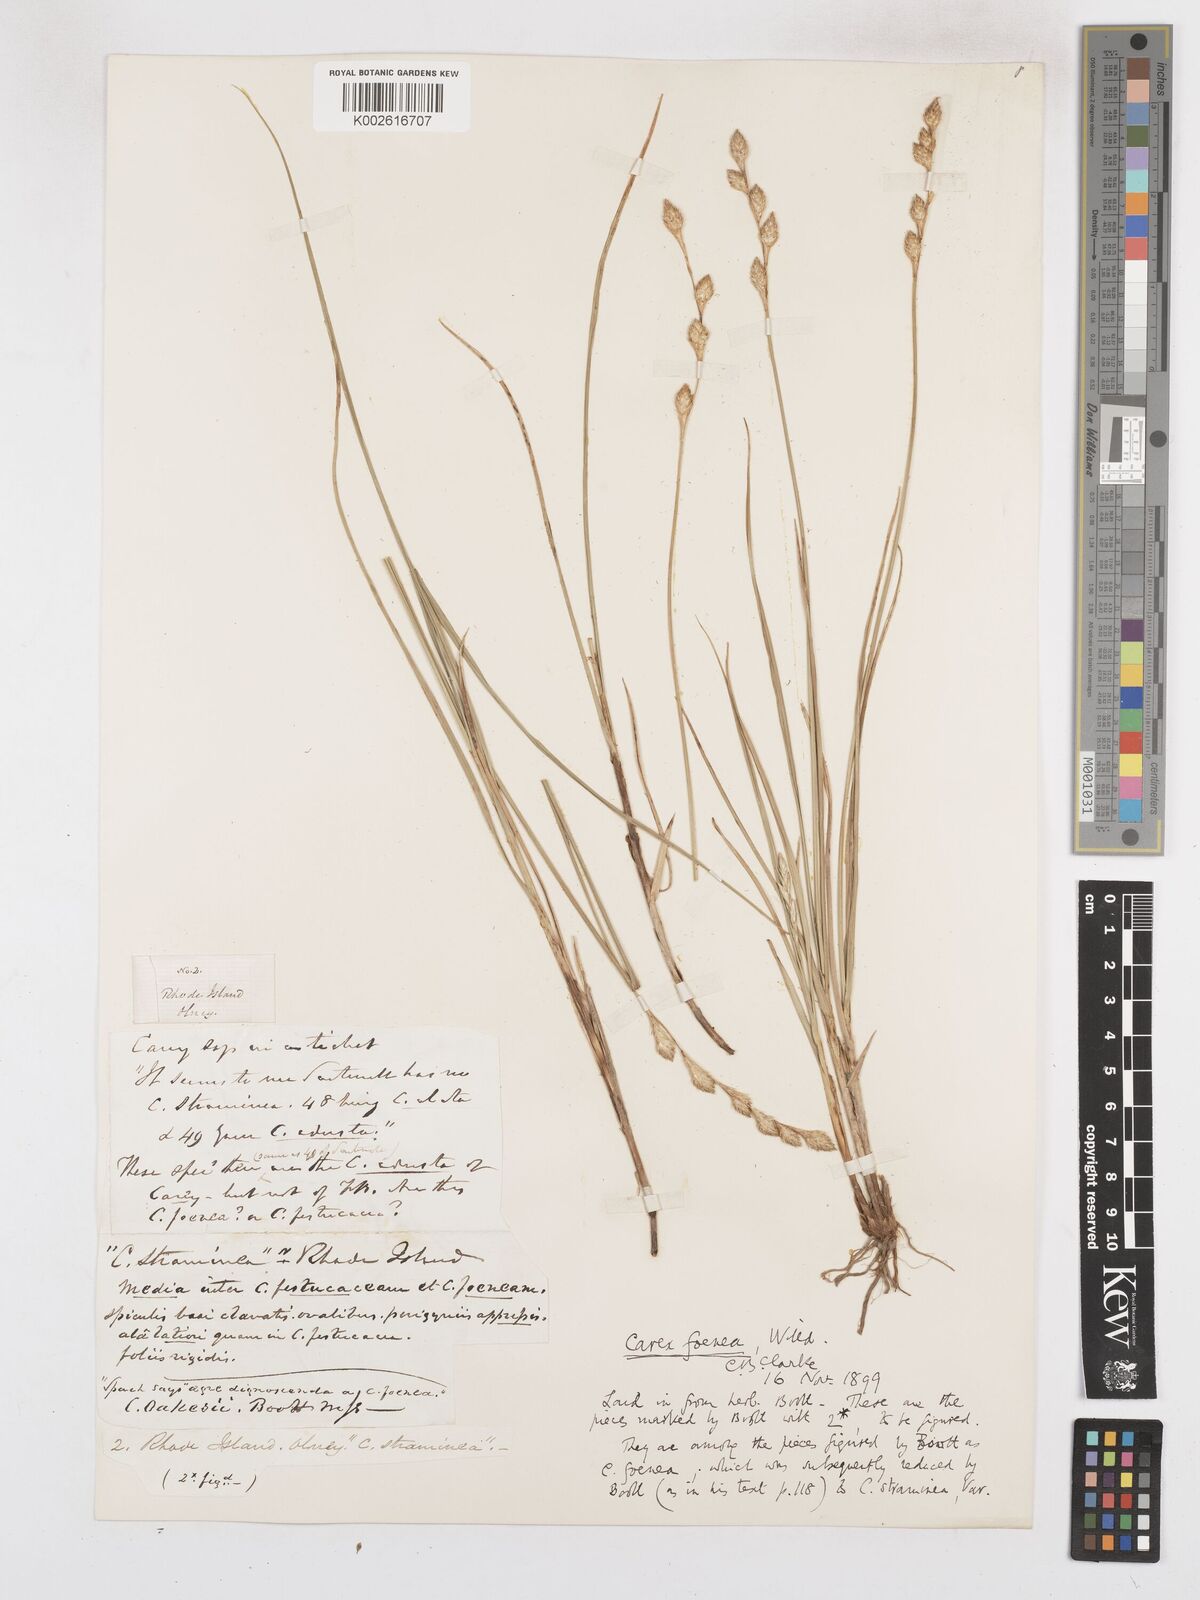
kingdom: Plantae
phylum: Tracheophyta
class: Liliopsida
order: Poales
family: Cyperaceae
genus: Carex
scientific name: Carex argyrantha
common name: Silvery-flowered sedge
